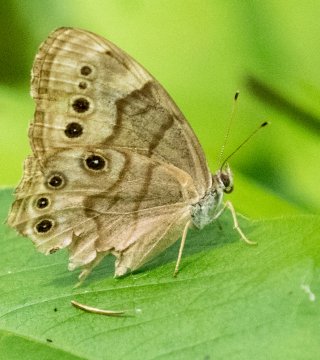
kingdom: Animalia
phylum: Arthropoda
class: Insecta
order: Lepidoptera
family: Nymphalidae
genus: Lethe
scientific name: Lethe anthedon
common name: Northern Pearly-Eye
